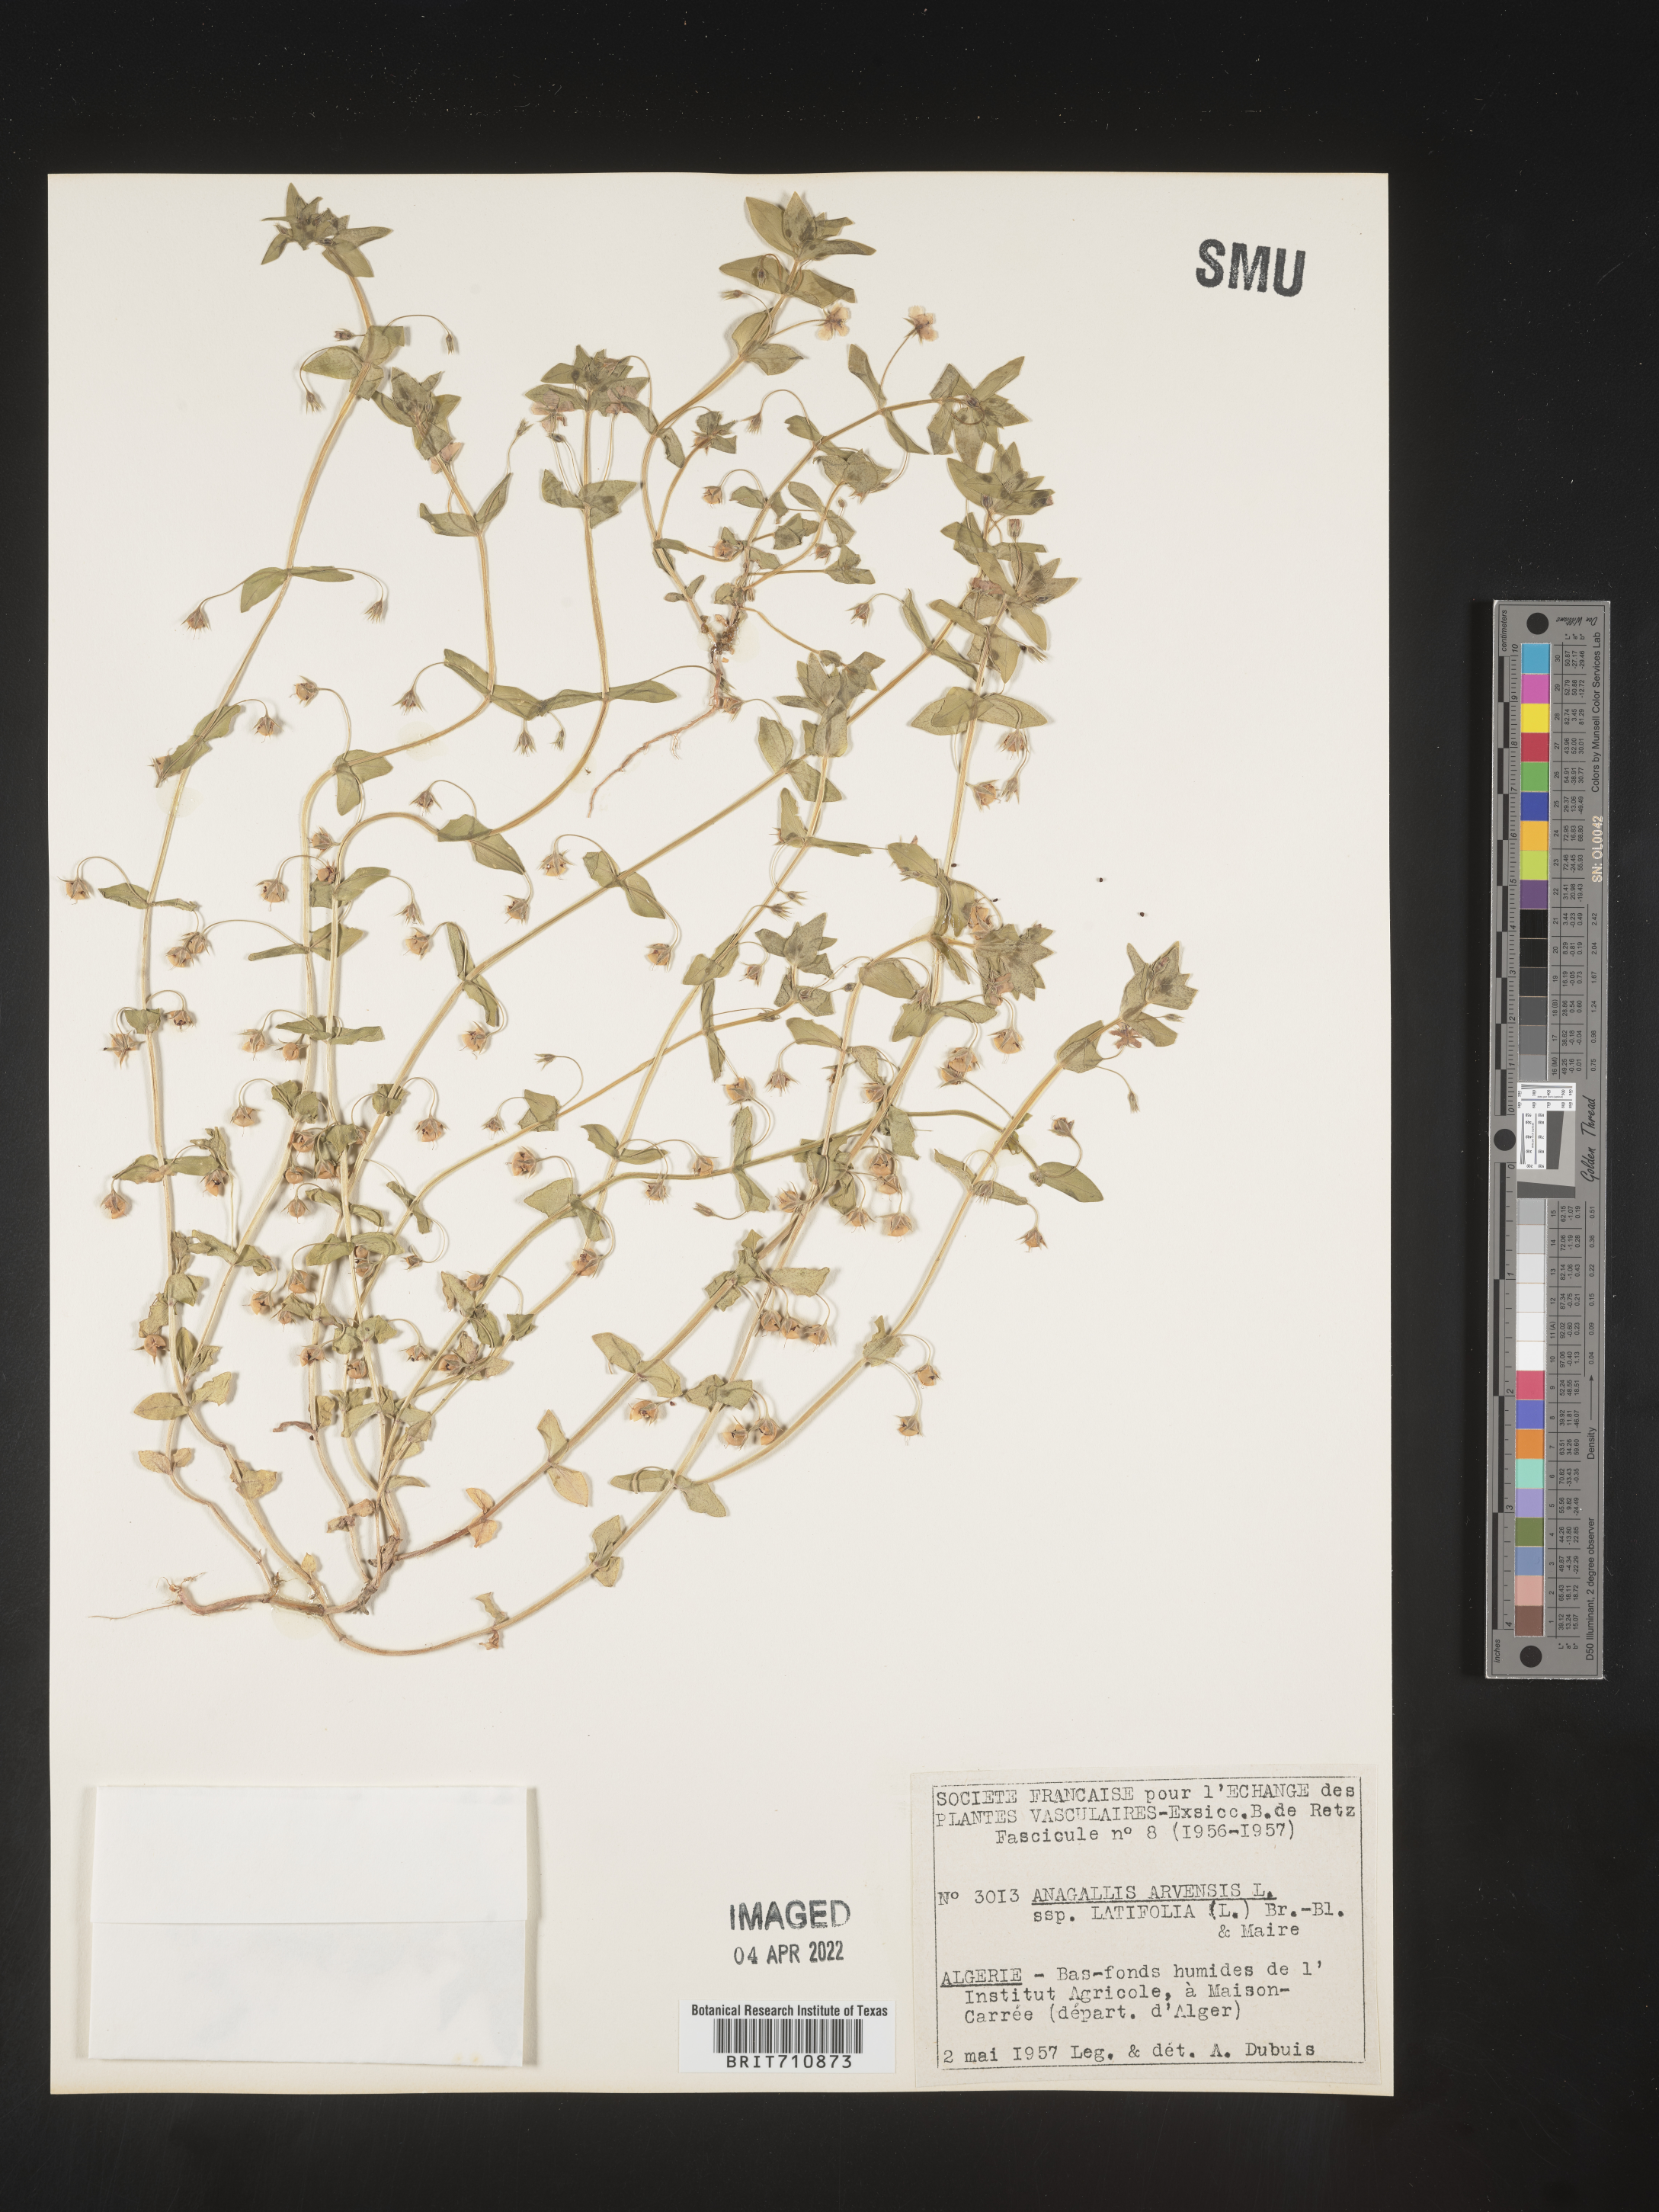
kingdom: Plantae
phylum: Tracheophyta
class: Magnoliopsida
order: Ericales
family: Primulaceae
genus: Lysimachia
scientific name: Lysimachia Anagallis spec
